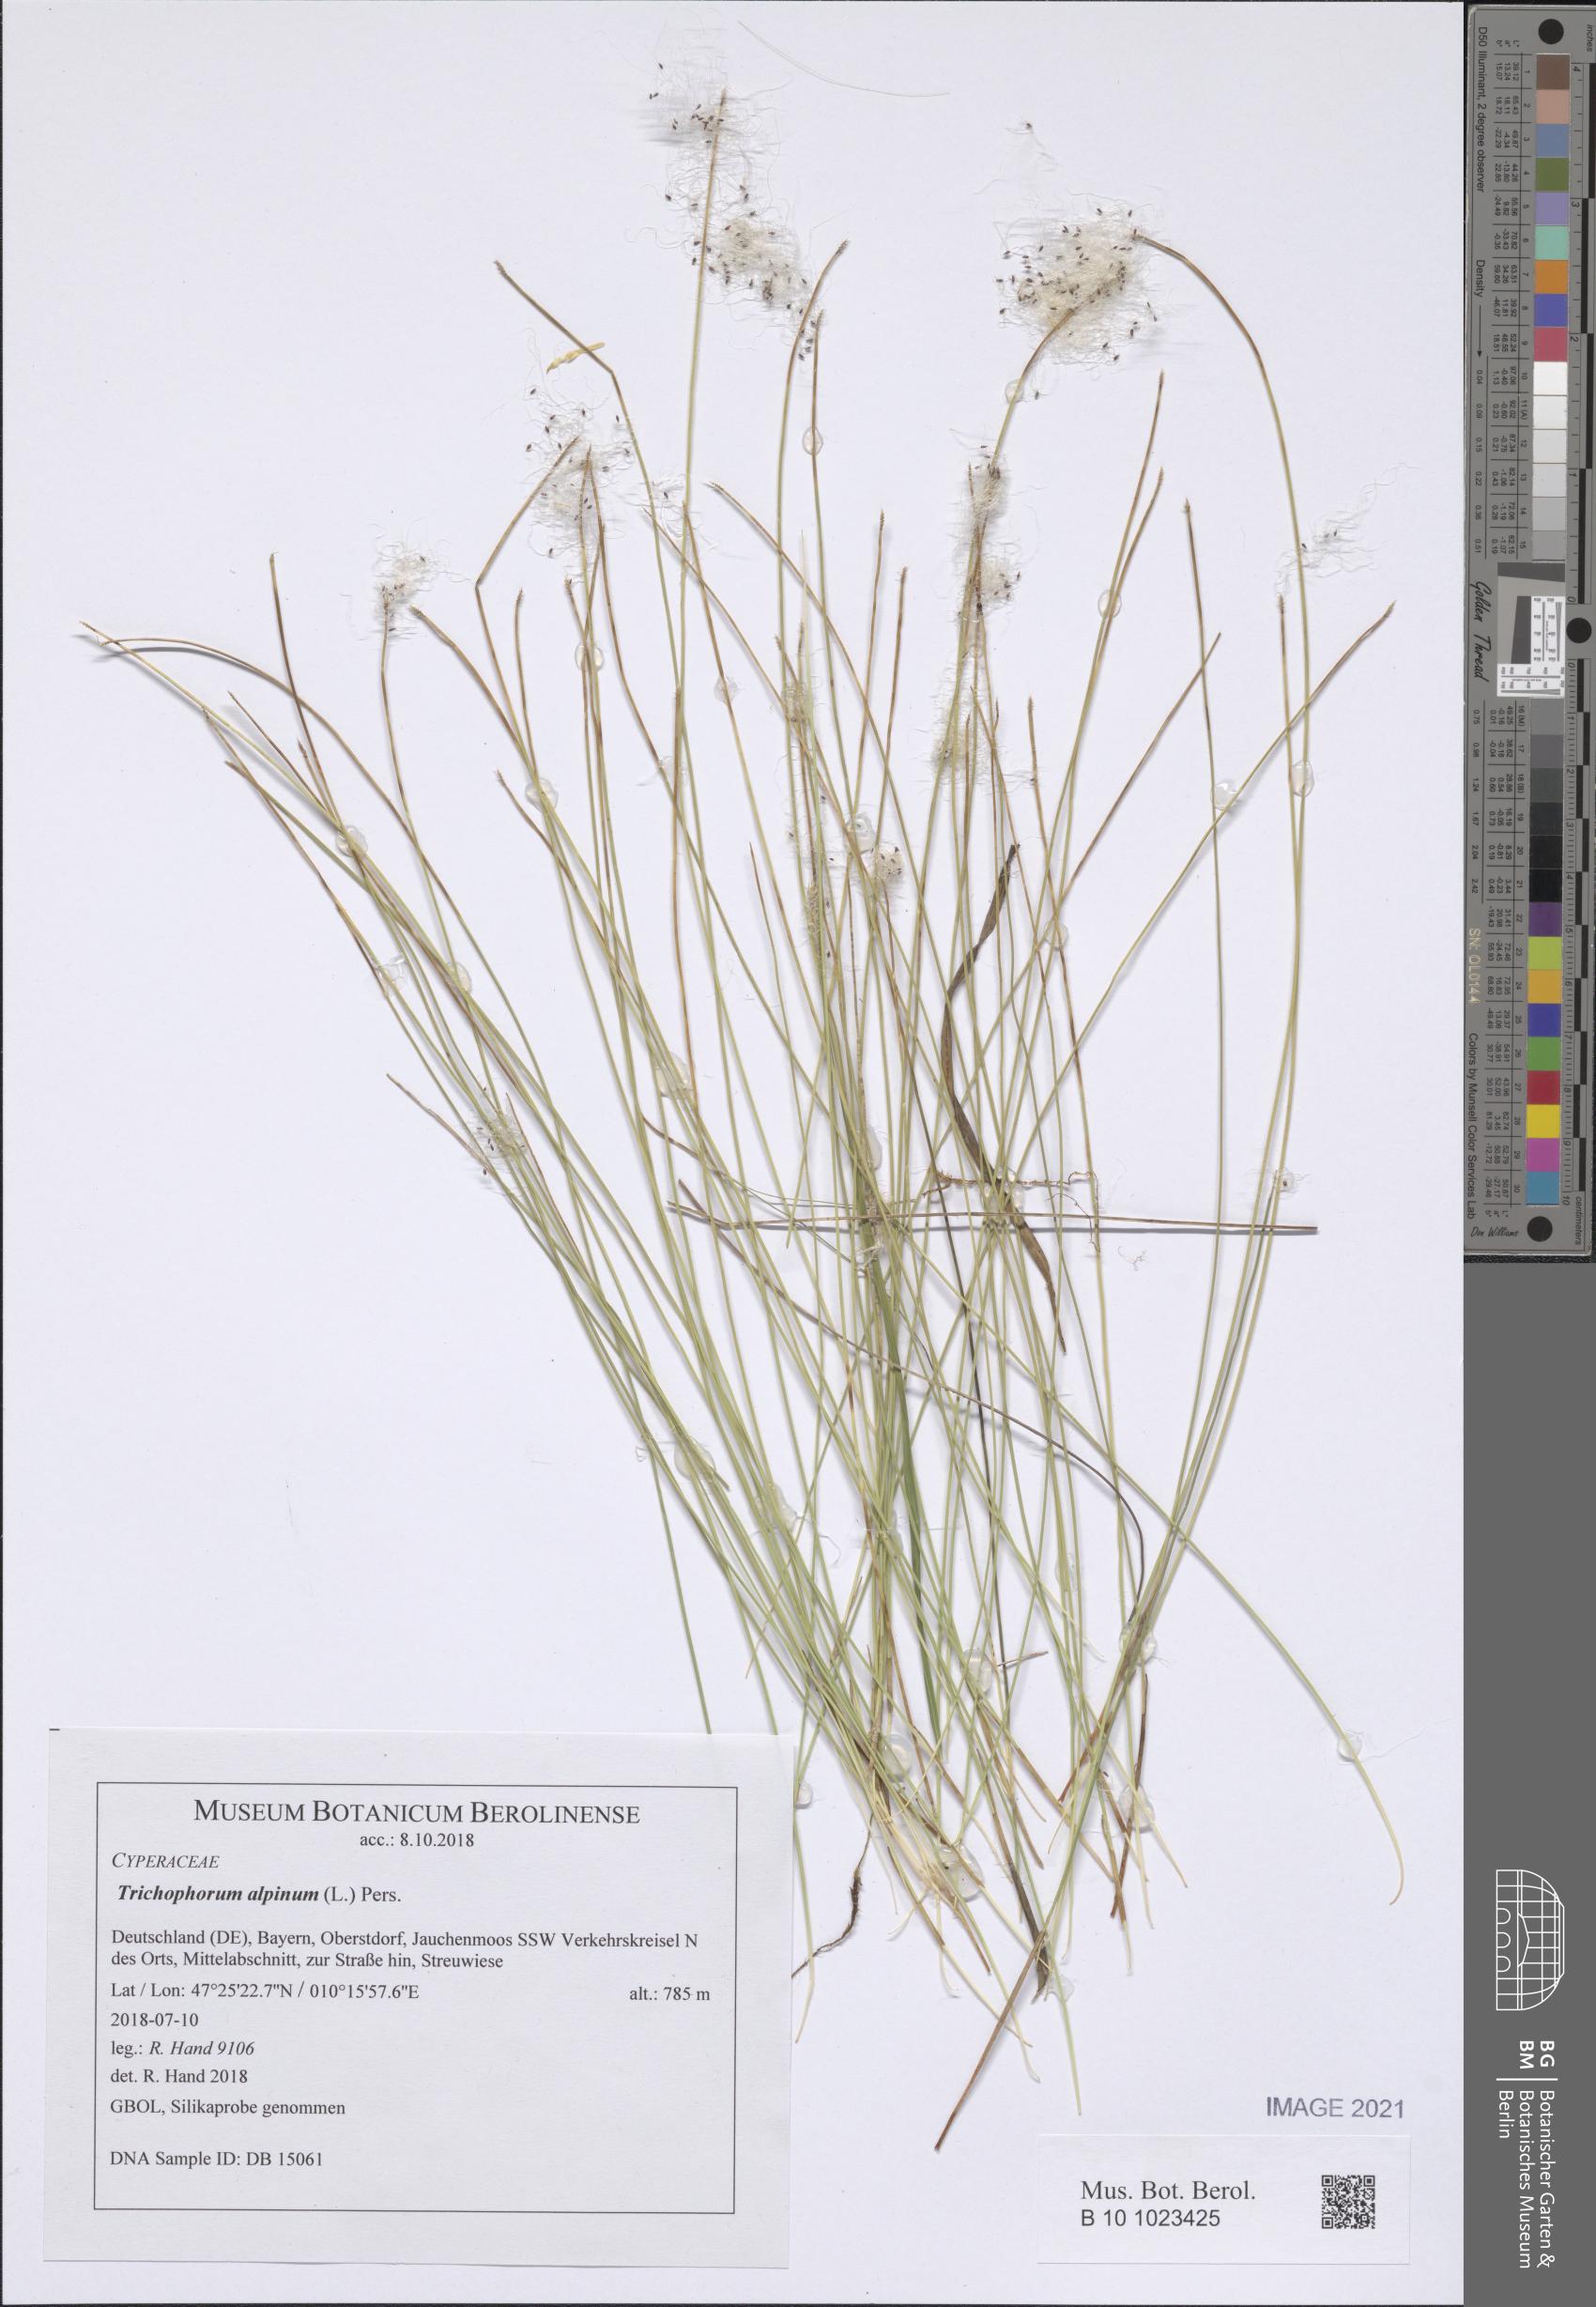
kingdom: Plantae
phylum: Tracheophyta
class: Liliopsida
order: Poales
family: Cyperaceae
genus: Trichophorum
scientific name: Trichophorum alpinum
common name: Alpine bulrush
